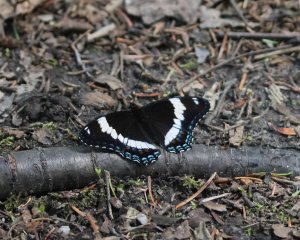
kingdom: Animalia
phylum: Arthropoda
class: Insecta
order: Lepidoptera
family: Nymphalidae
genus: Limenitis
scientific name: Limenitis arthemis
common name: Red-spotted Admiral
